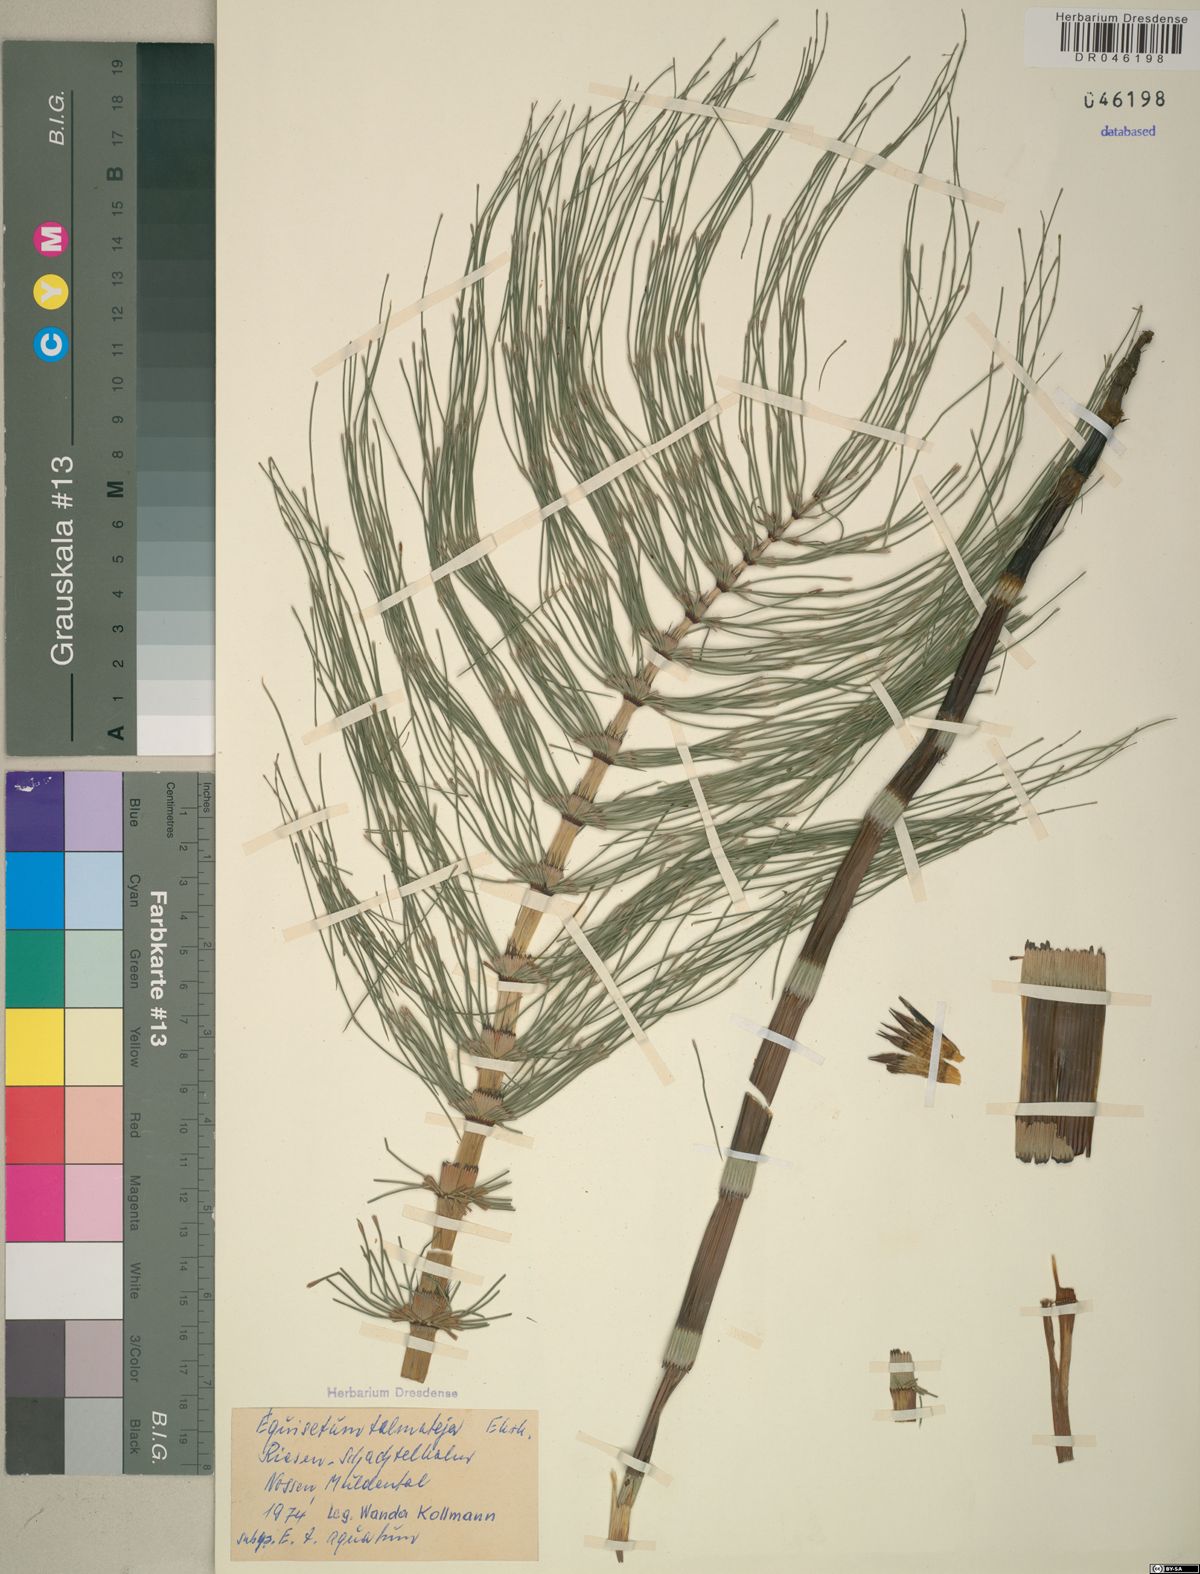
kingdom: Plantae
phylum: Tracheophyta
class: Polypodiopsida
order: Equisetales
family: Equisetaceae
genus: Equisetum
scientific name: Equisetum telmateia
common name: Great horsetail
